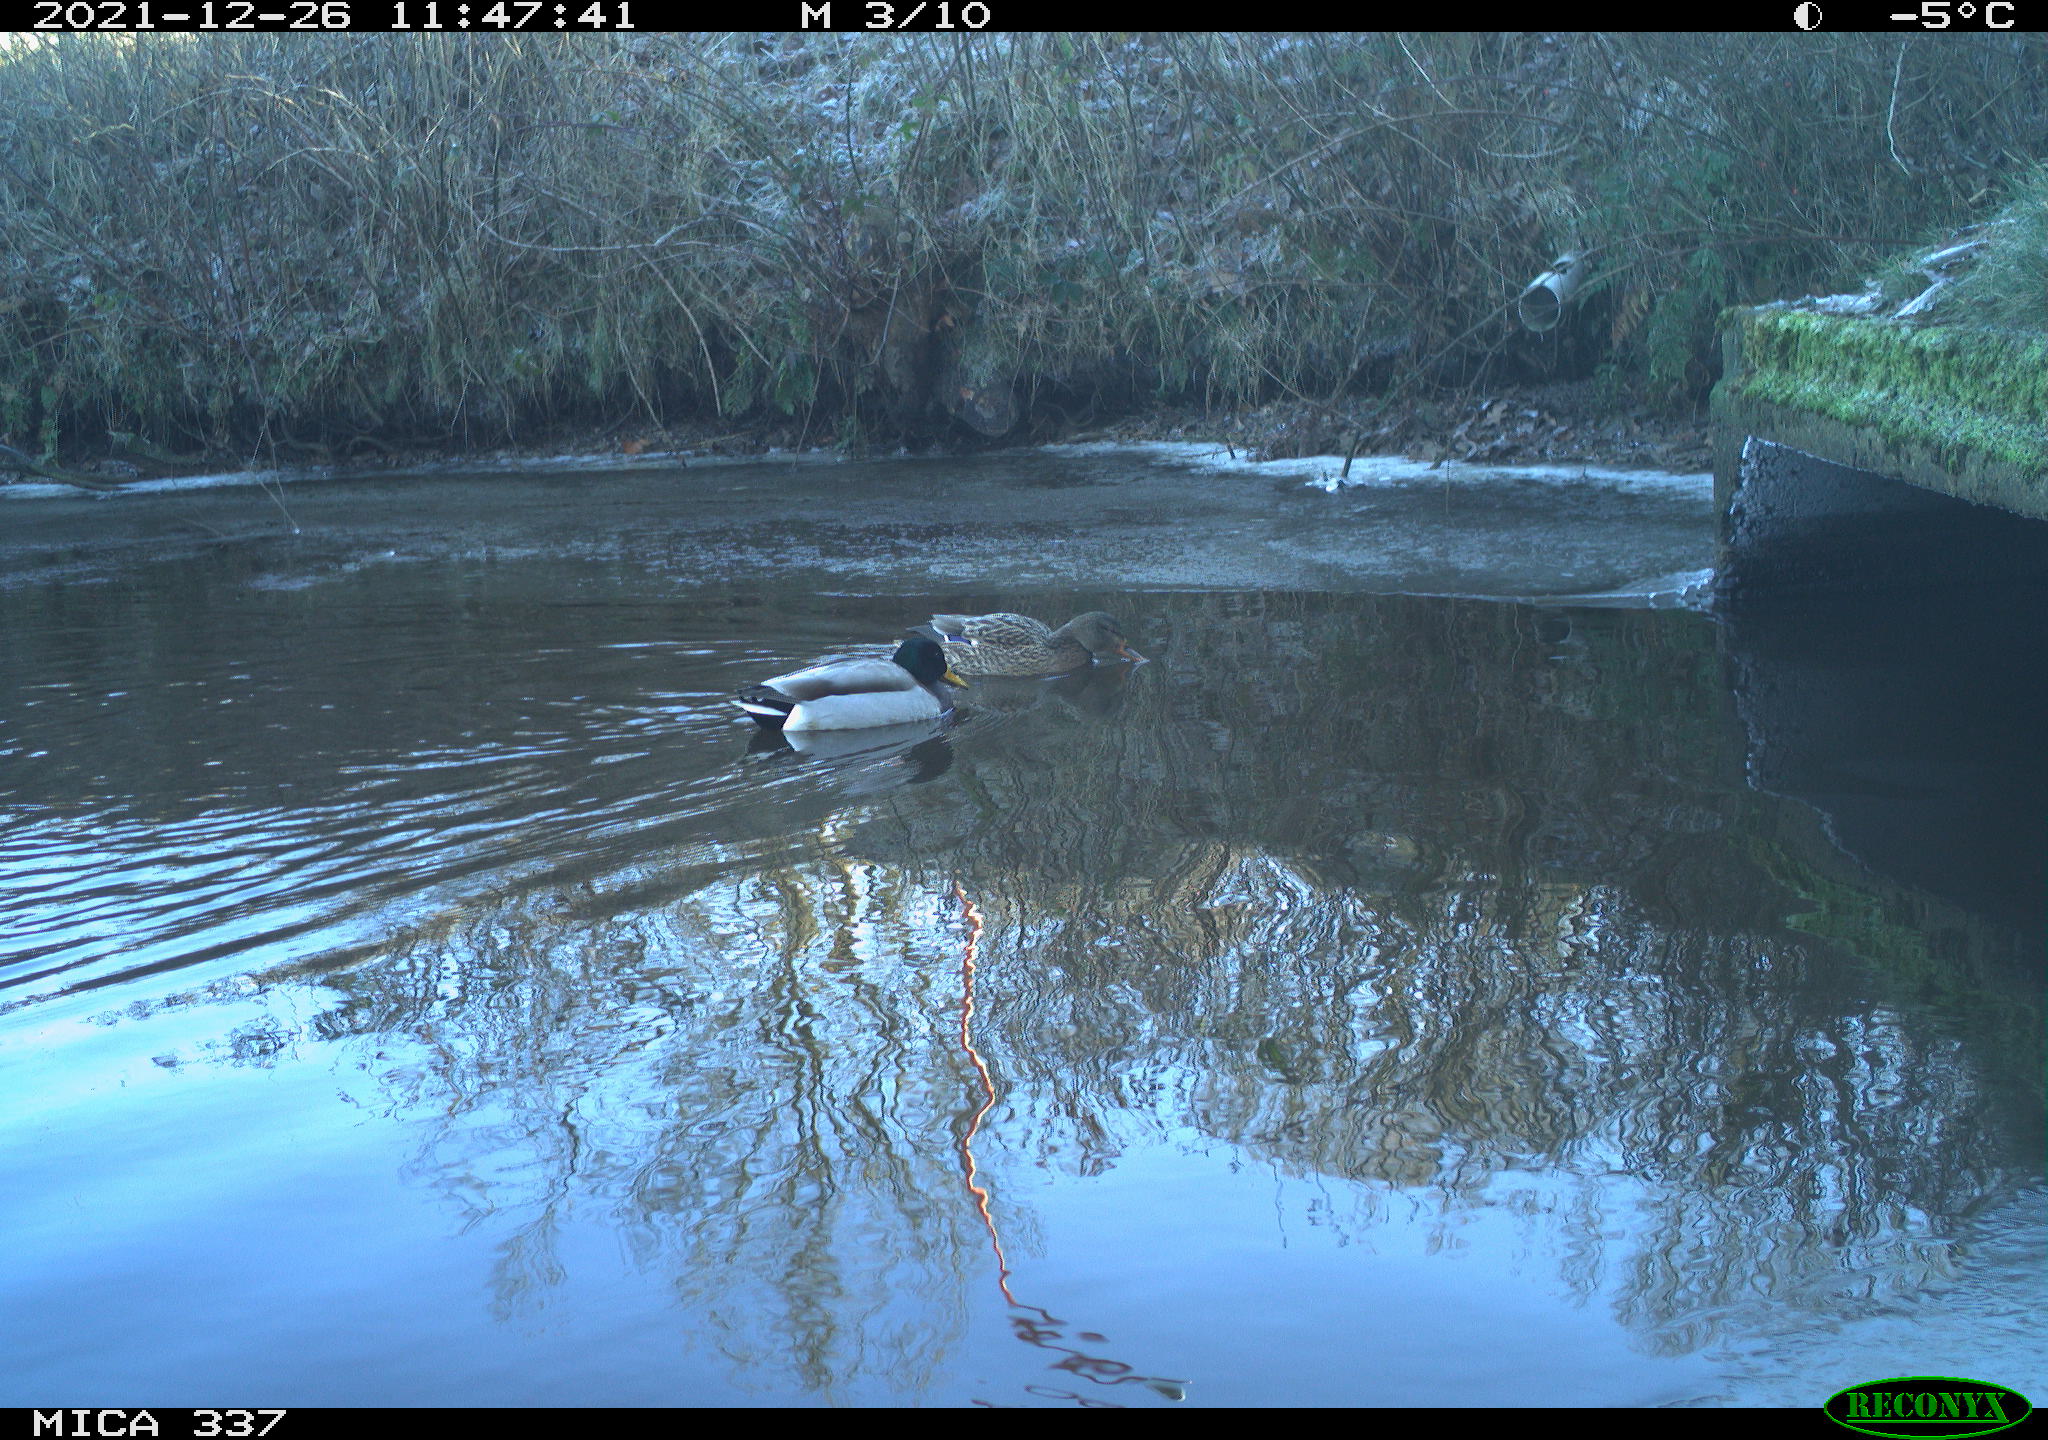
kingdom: Animalia
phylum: Chordata
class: Aves
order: Anseriformes
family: Anatidae
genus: Anas
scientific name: Anas platyrhynchos
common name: Mallard
